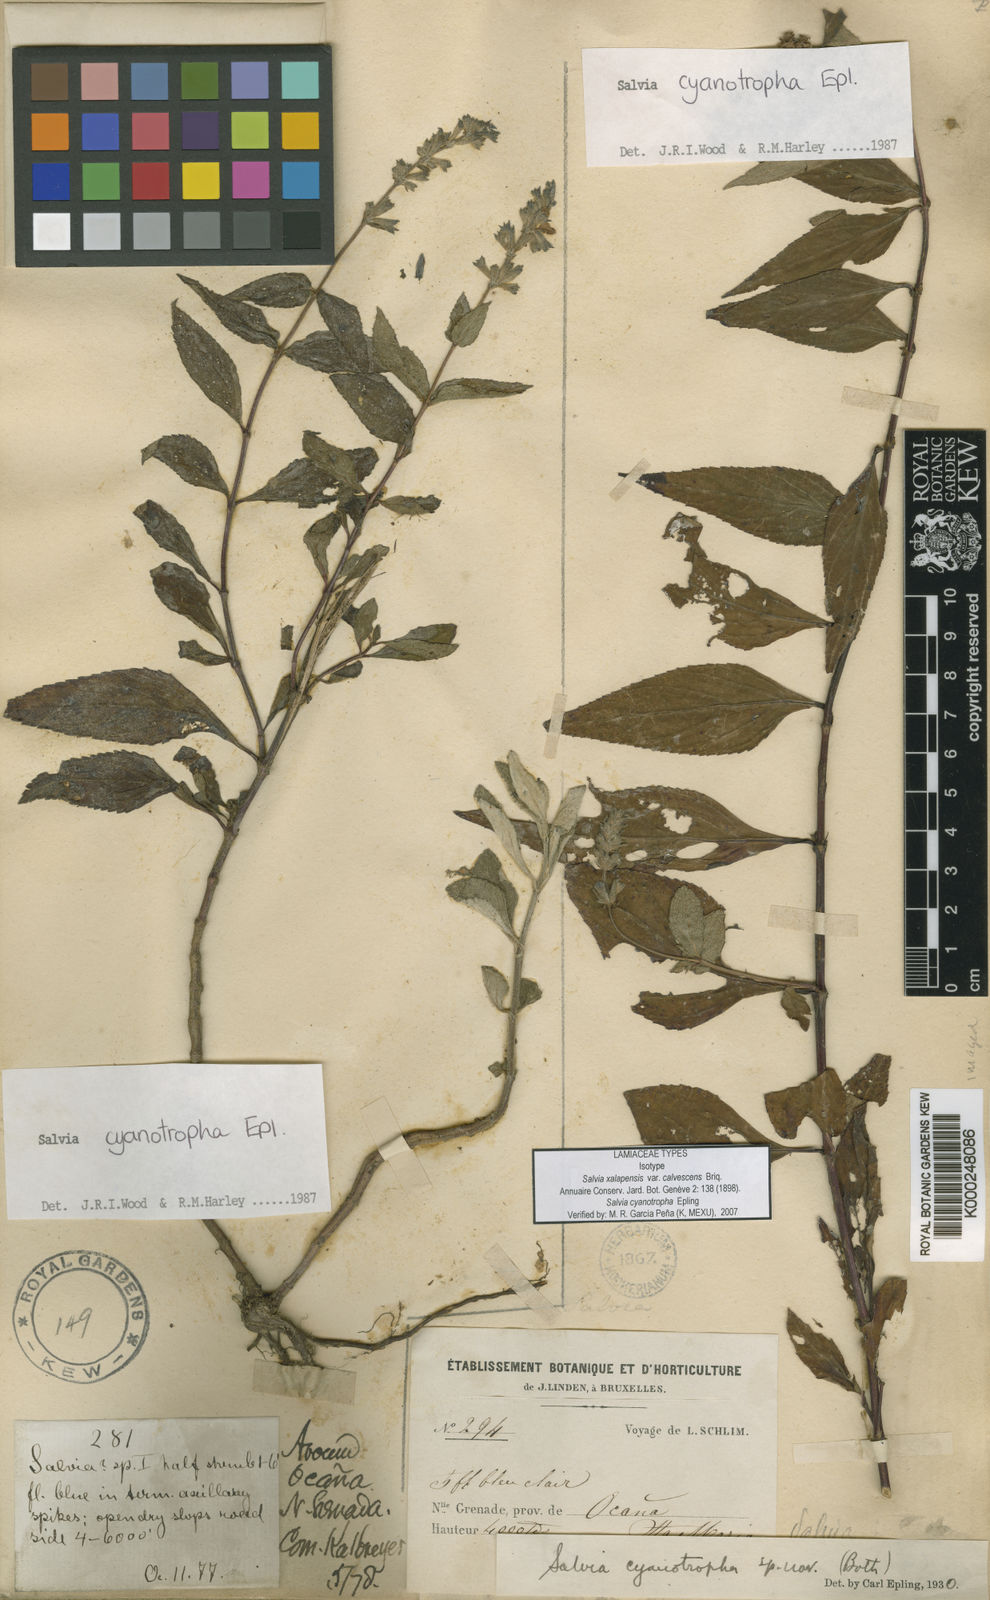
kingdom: Plantae
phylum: Tracheophyta
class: Magnoliopsida
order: Lamiales
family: Lamiaceae
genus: Salvia
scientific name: Salvia
